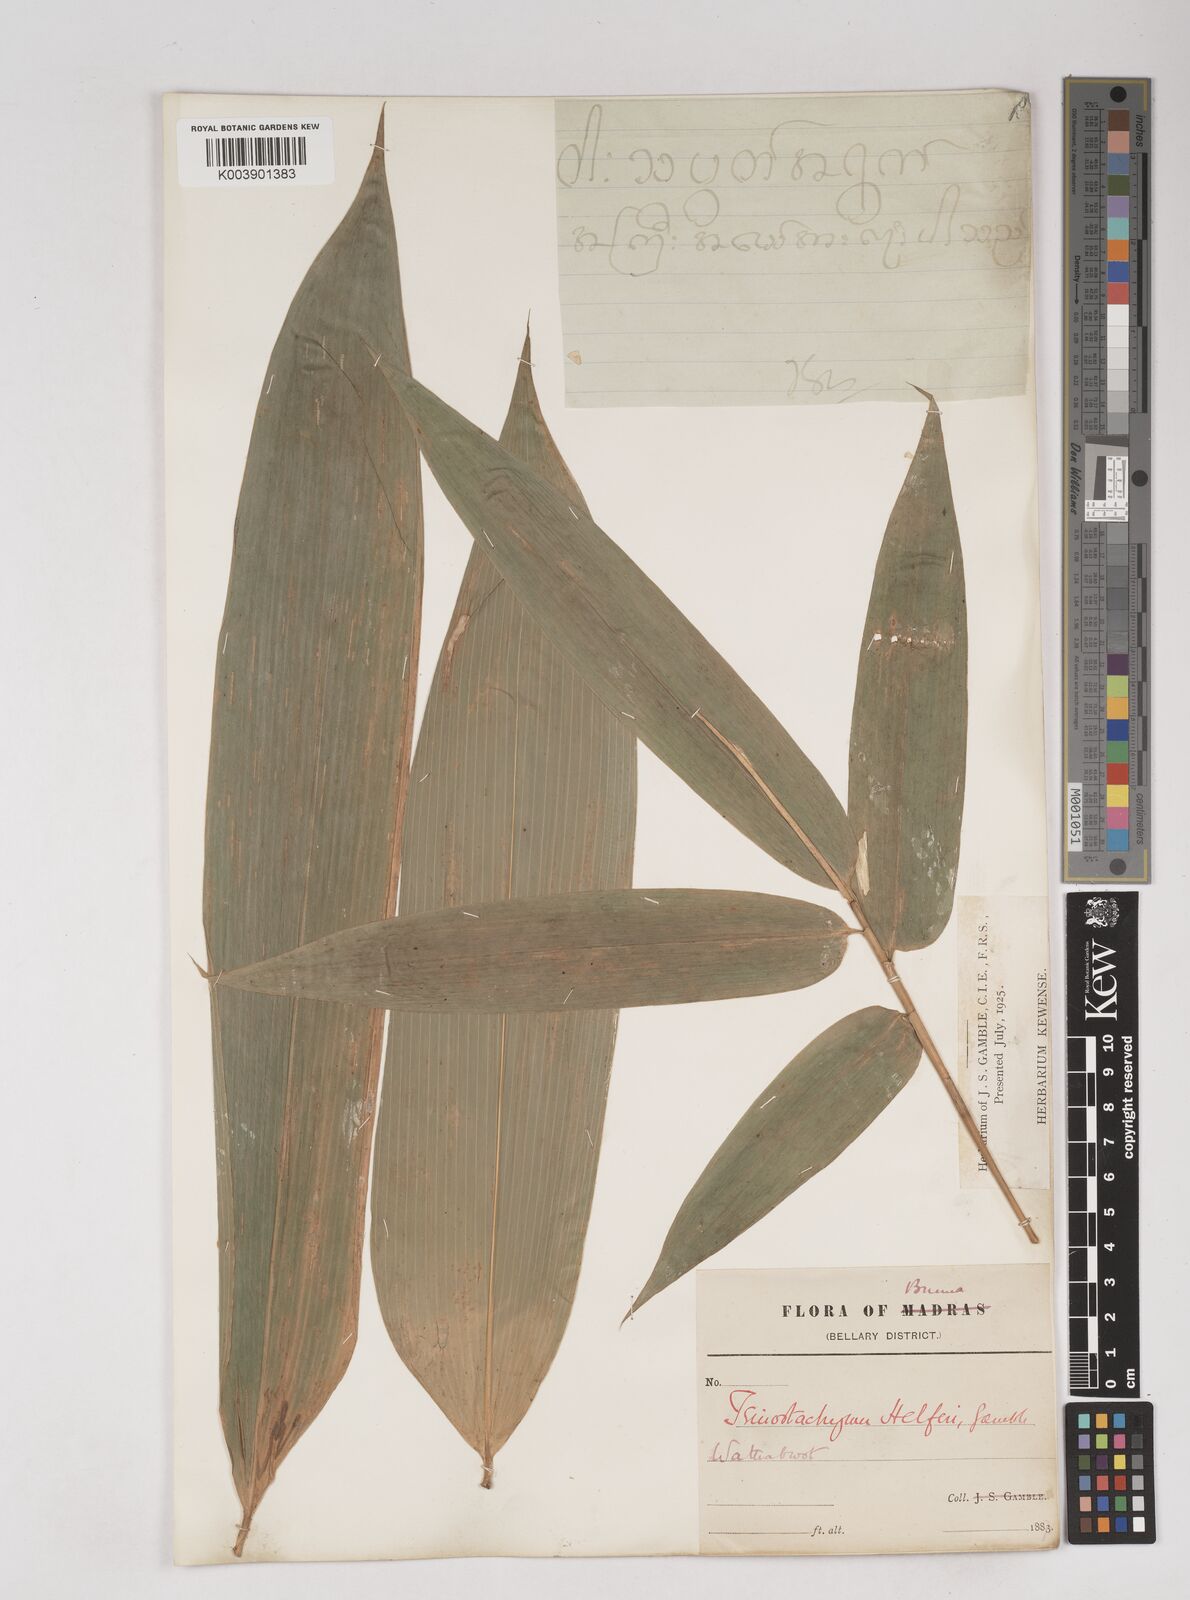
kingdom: Plantae
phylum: Tracheophyta
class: Liliopsida
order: Poales
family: Poaceae
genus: Schizostachyum
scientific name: Schizostachyum helferi
